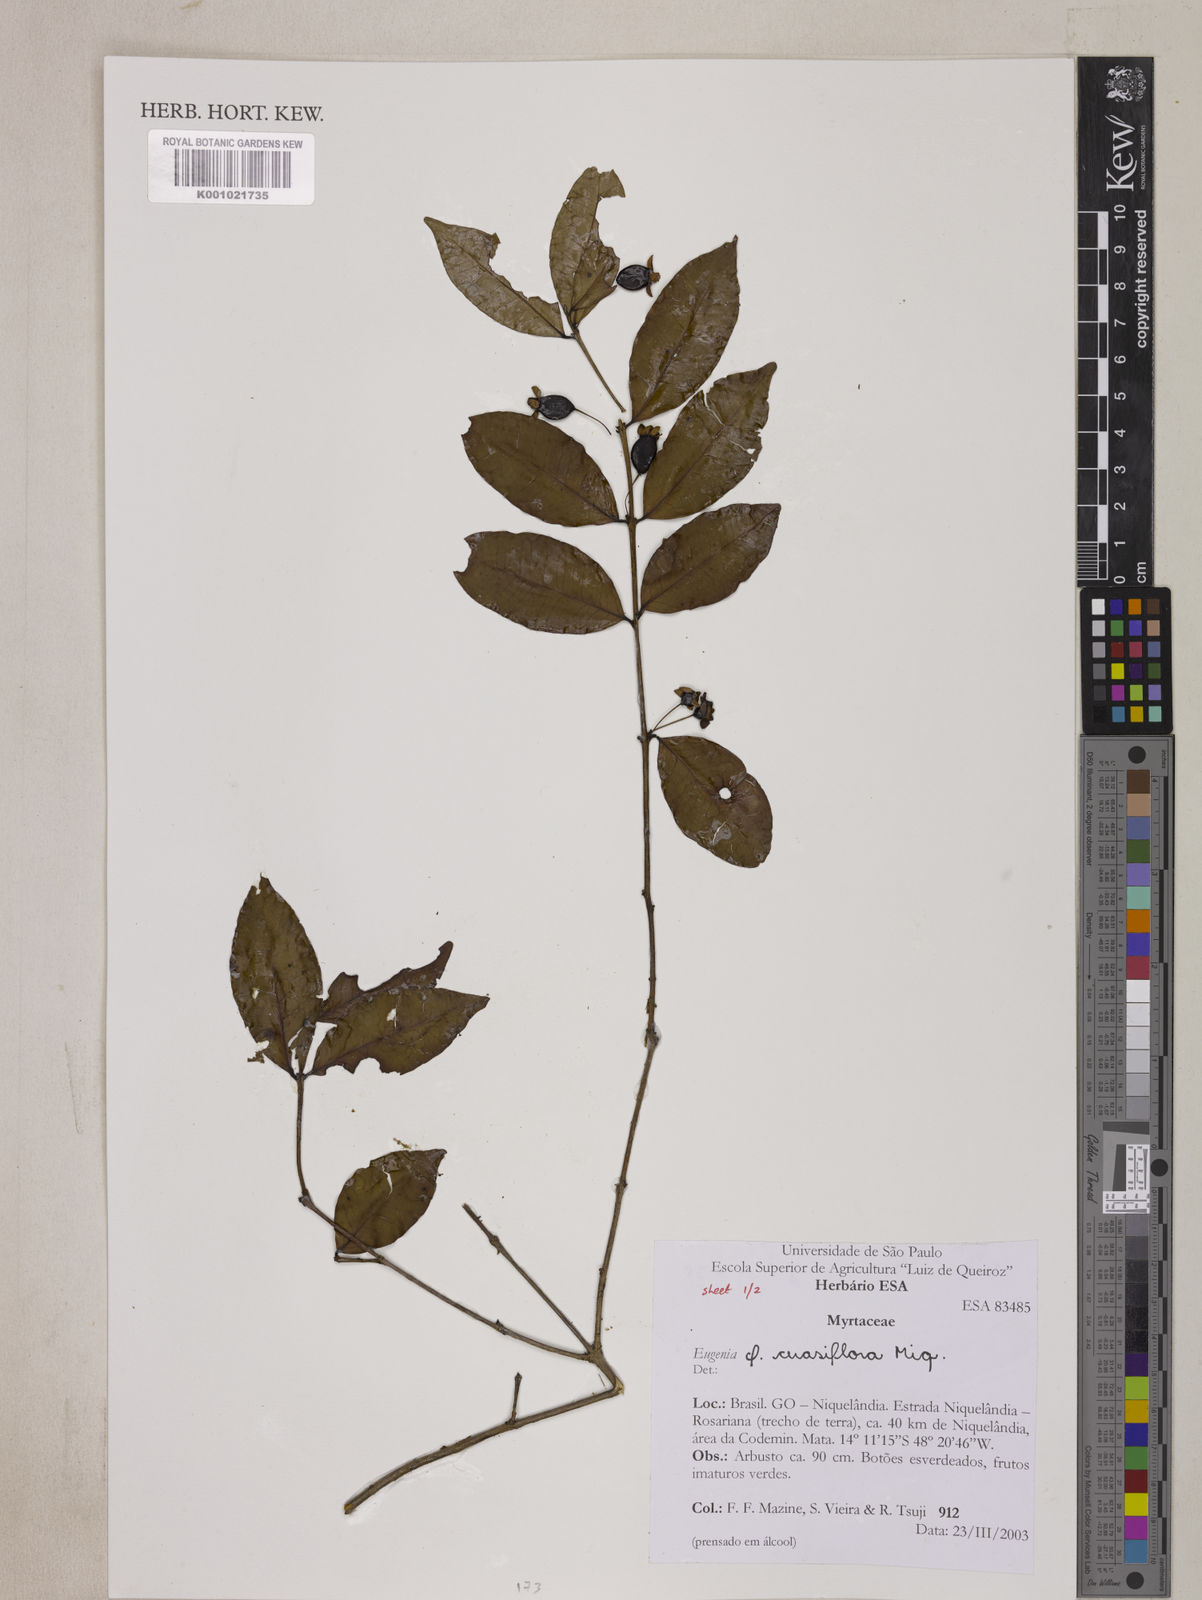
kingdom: Plantae
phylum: Tracheophyta
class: Magnoliopsida
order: Myrtales
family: Myrtaceae
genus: Eugenia
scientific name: Eugenia cerasiflora
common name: Cherry-of-the-rio-grande
